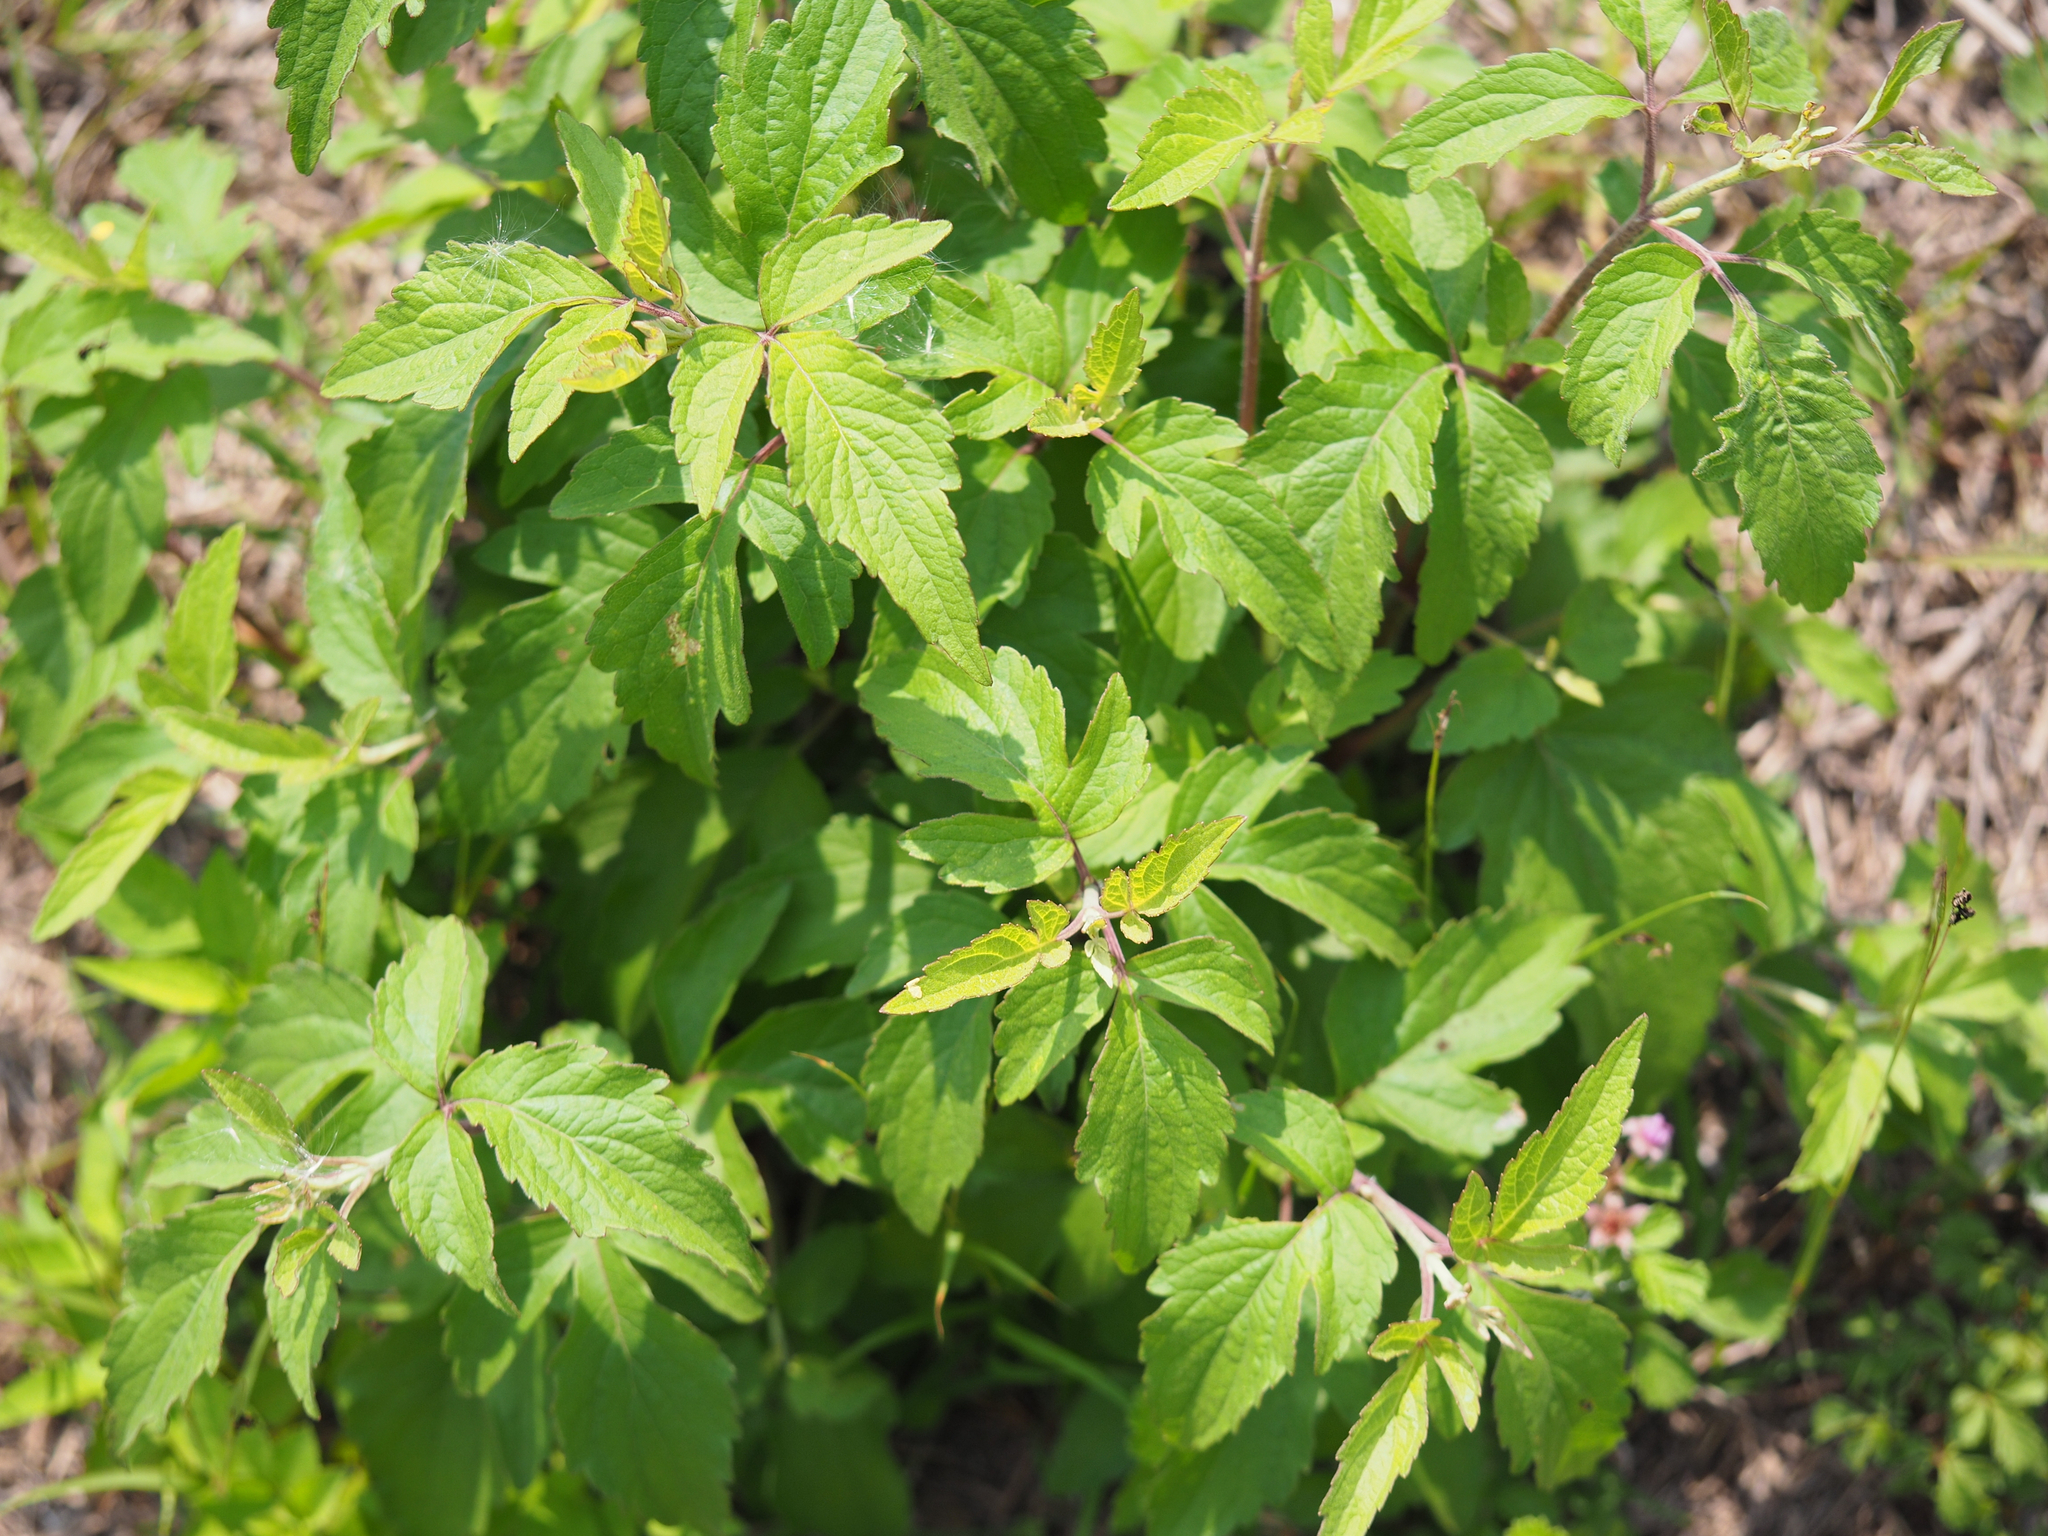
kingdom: Plantae
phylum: Tracheophyta
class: Magnoliopsida
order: Asterales
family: Asteraceae
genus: Eupatorium
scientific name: Eupatorium formosanum
